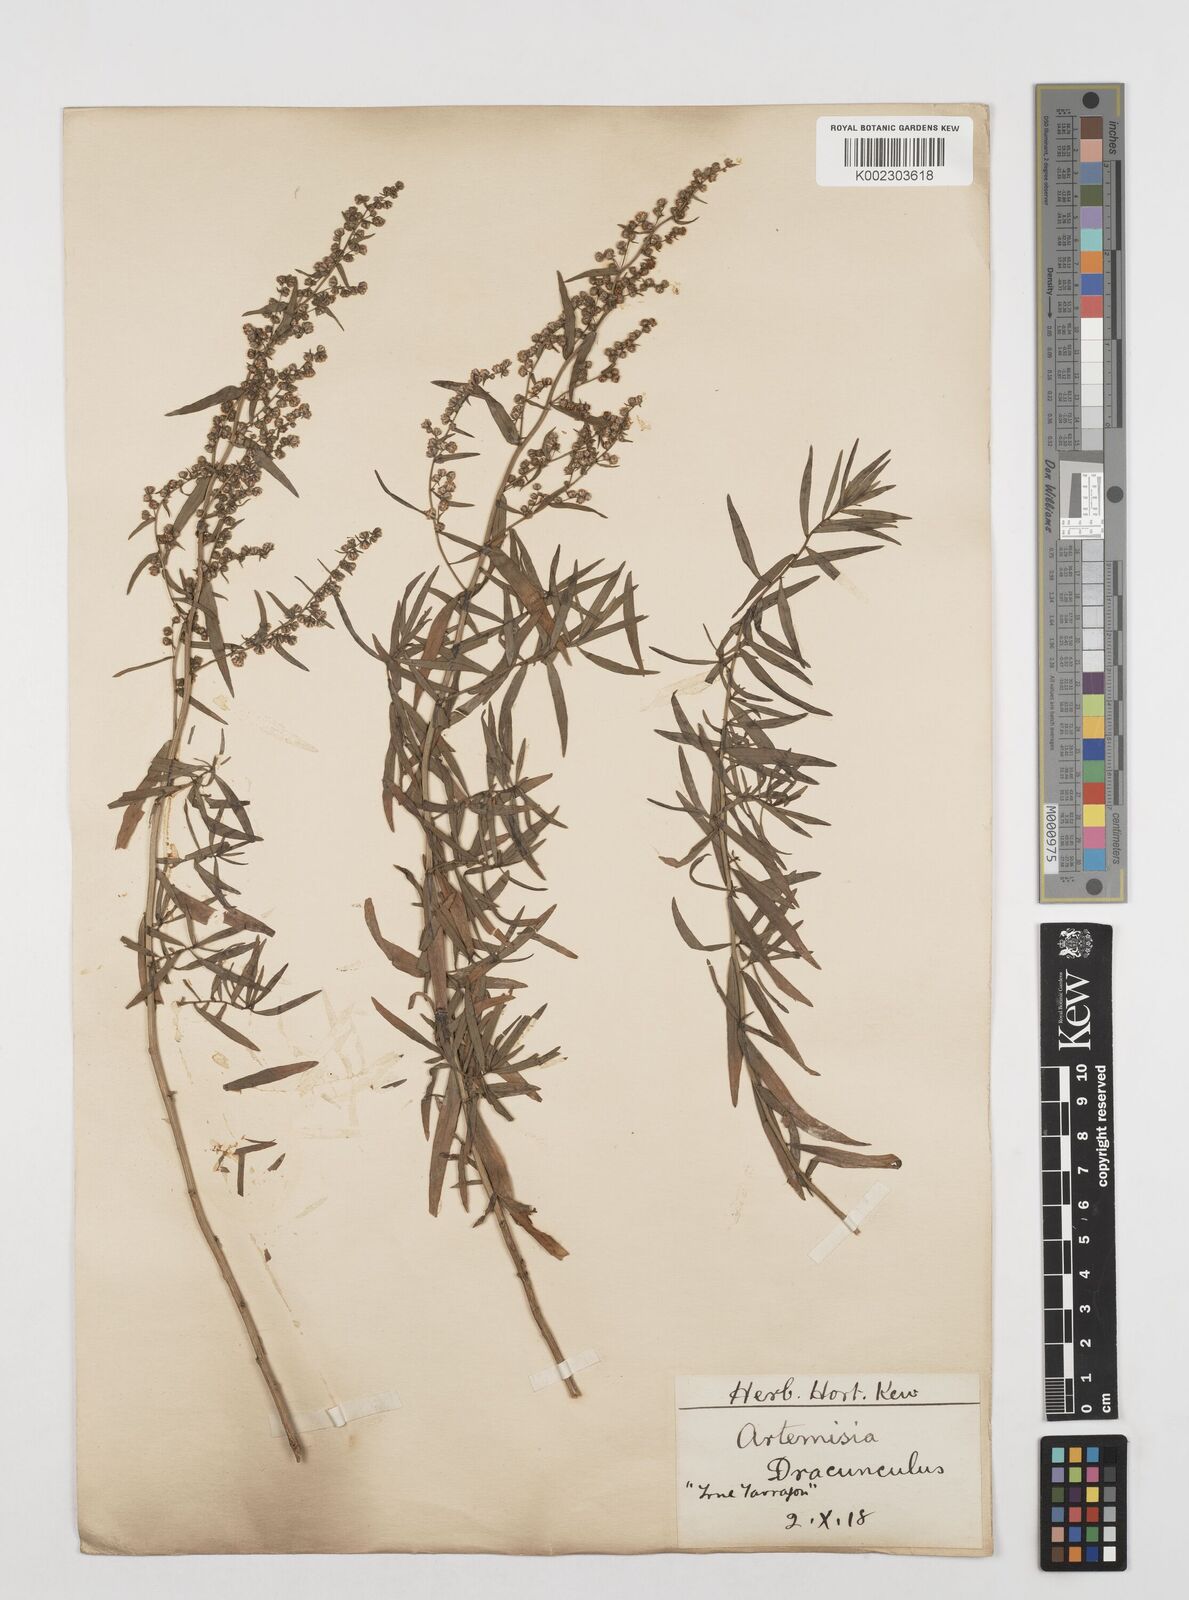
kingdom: Plantae
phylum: Tracheophyta
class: Magnoliopsida
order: Asterales
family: Asteraceae
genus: Artemisia
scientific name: Artemisia dracunculus
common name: Tarragon
